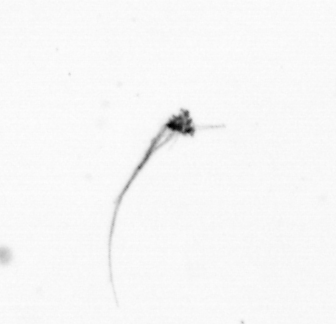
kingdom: Chromista
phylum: Ochrophyta
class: Bacillariophyceae
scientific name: Bacillariophyceae
